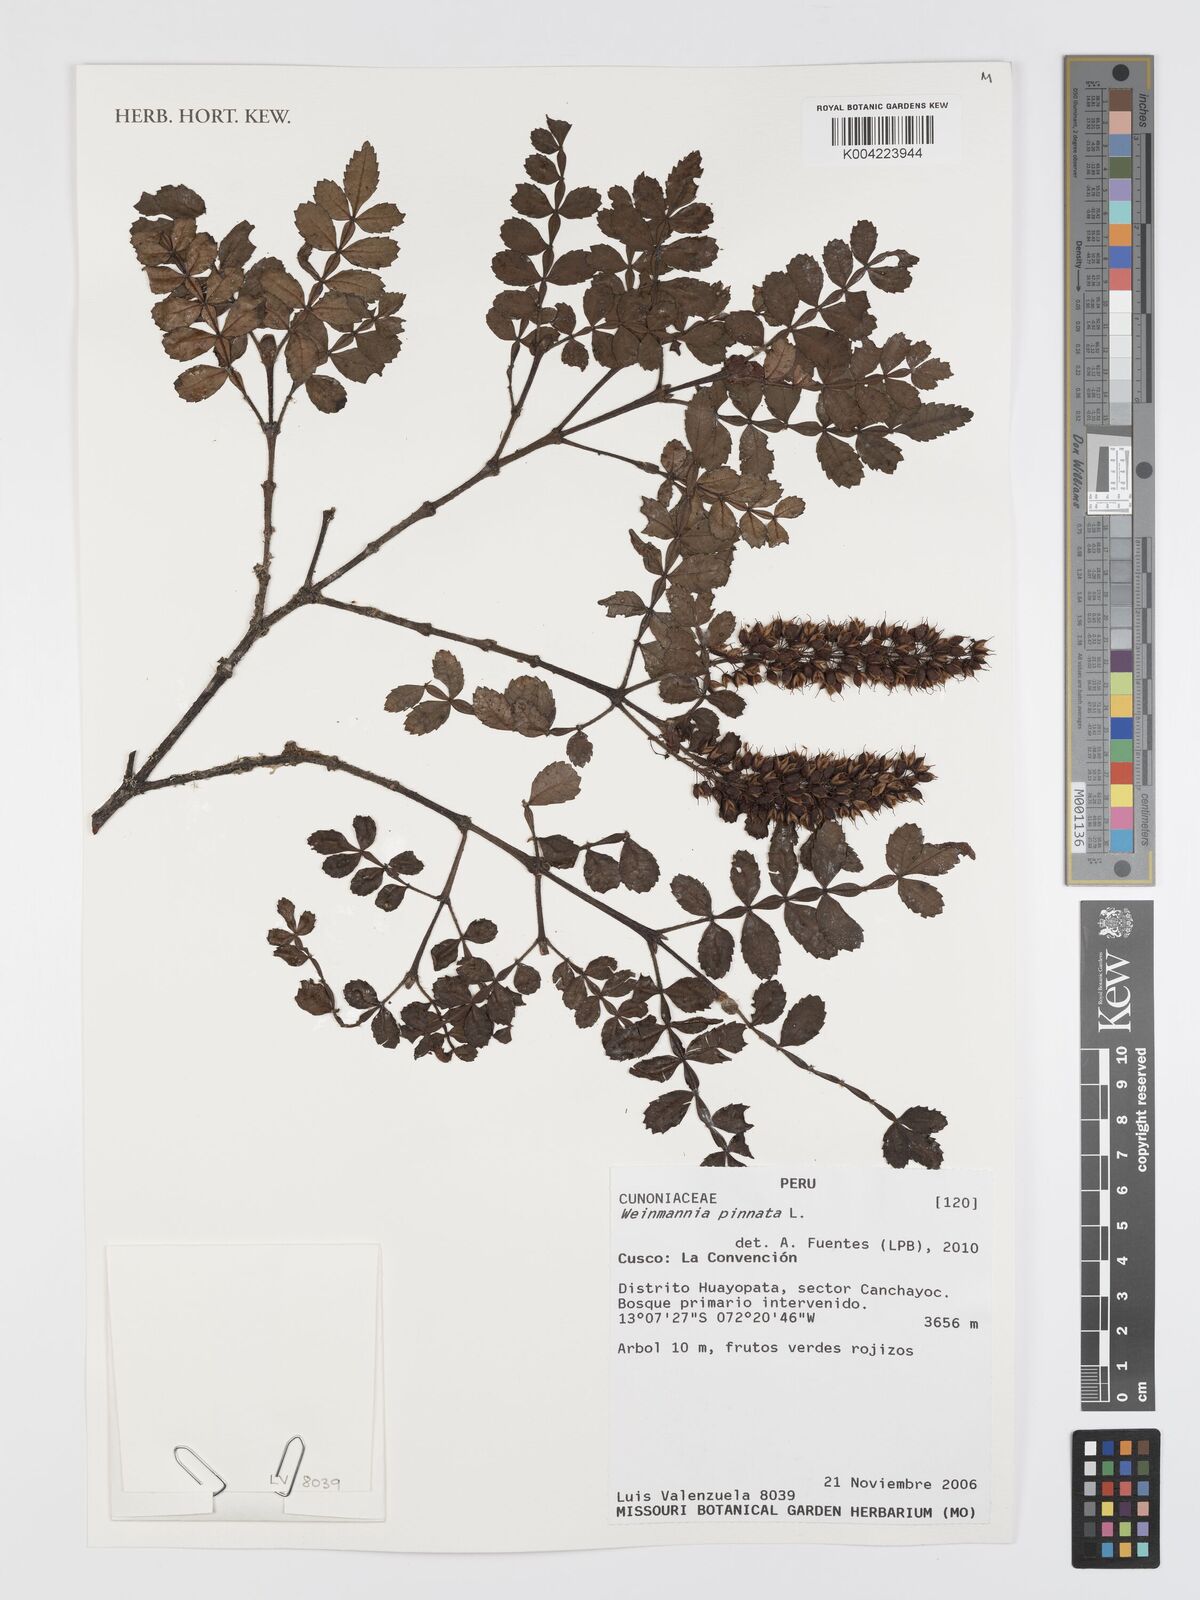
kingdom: Plantae
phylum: Tracheophyta
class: Magnoliopsida
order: Oxalidales
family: Cunoniaceae
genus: Weinmannia
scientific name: Weinmannia pinnata
